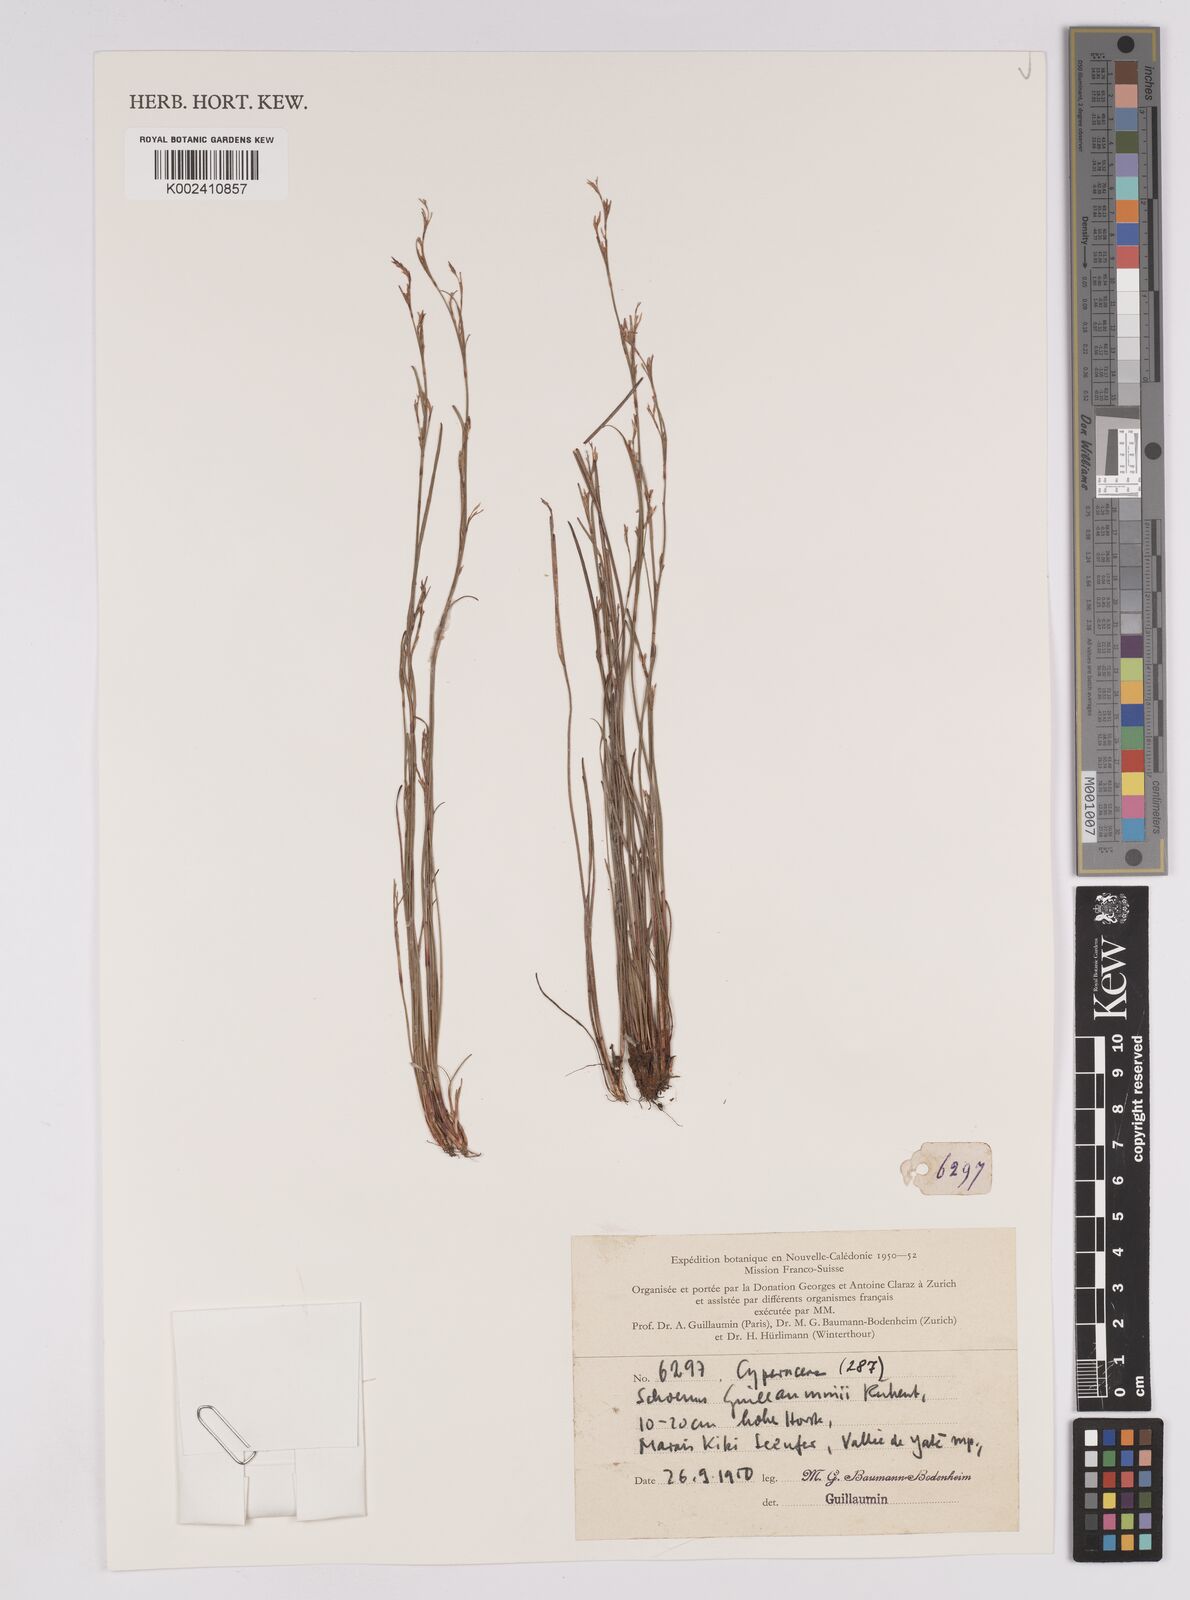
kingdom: Plantae
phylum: Tracheophyta
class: Liliopsida
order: Poales
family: Cyperaceae
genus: Anthelepis
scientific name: Anthelepis guillauminii
